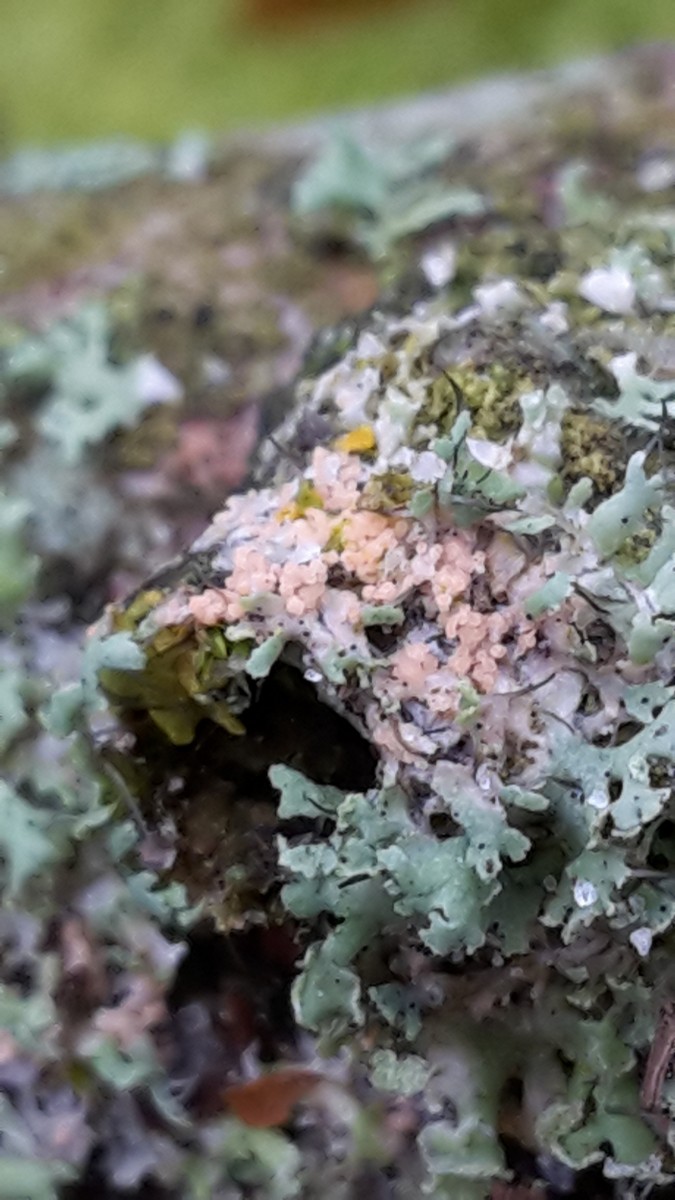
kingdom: Fungi
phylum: Basidiomycota
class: Agaricomycetes
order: Corticiales
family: Corticiaceae
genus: Erythricium
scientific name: Erythricium aurantiacum
